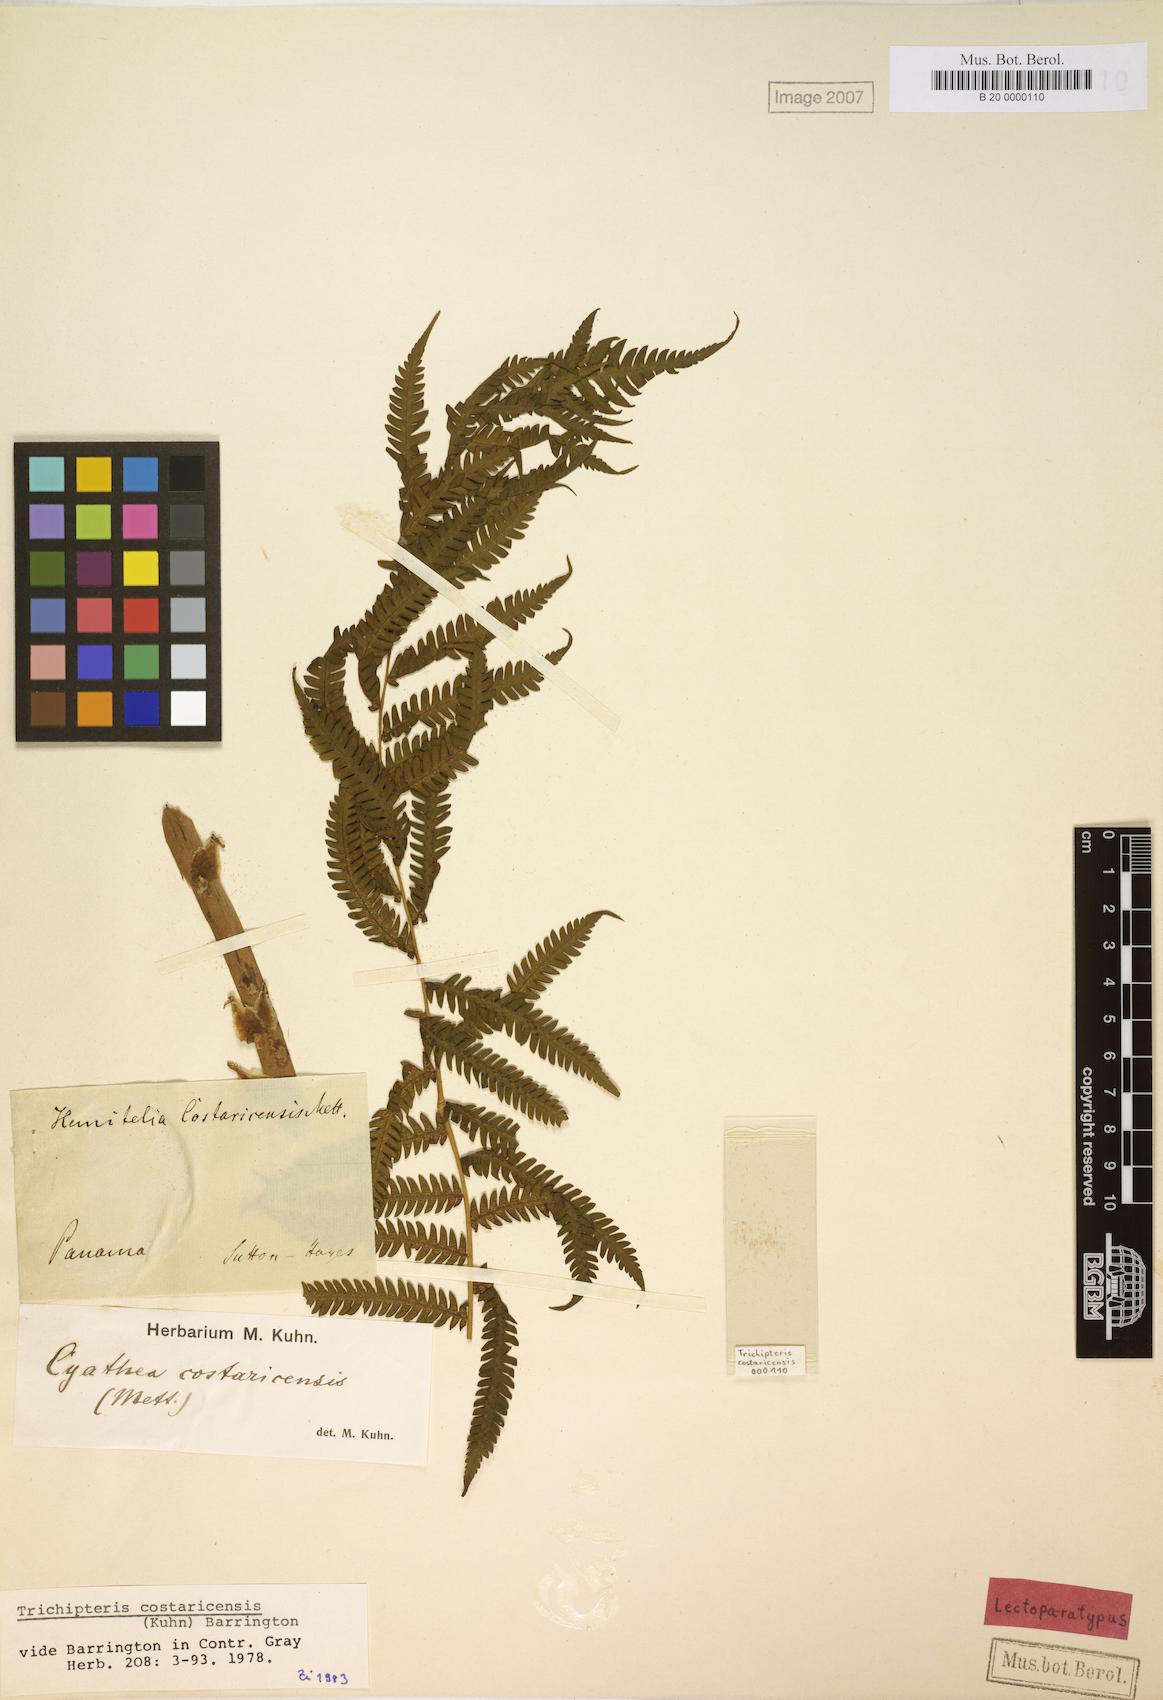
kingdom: Plantae
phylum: Tracheophyta
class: Polypodiopsida
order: Cyatheales
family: Cyatheaceae
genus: Cyathea
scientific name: Cyathea costaricensis
